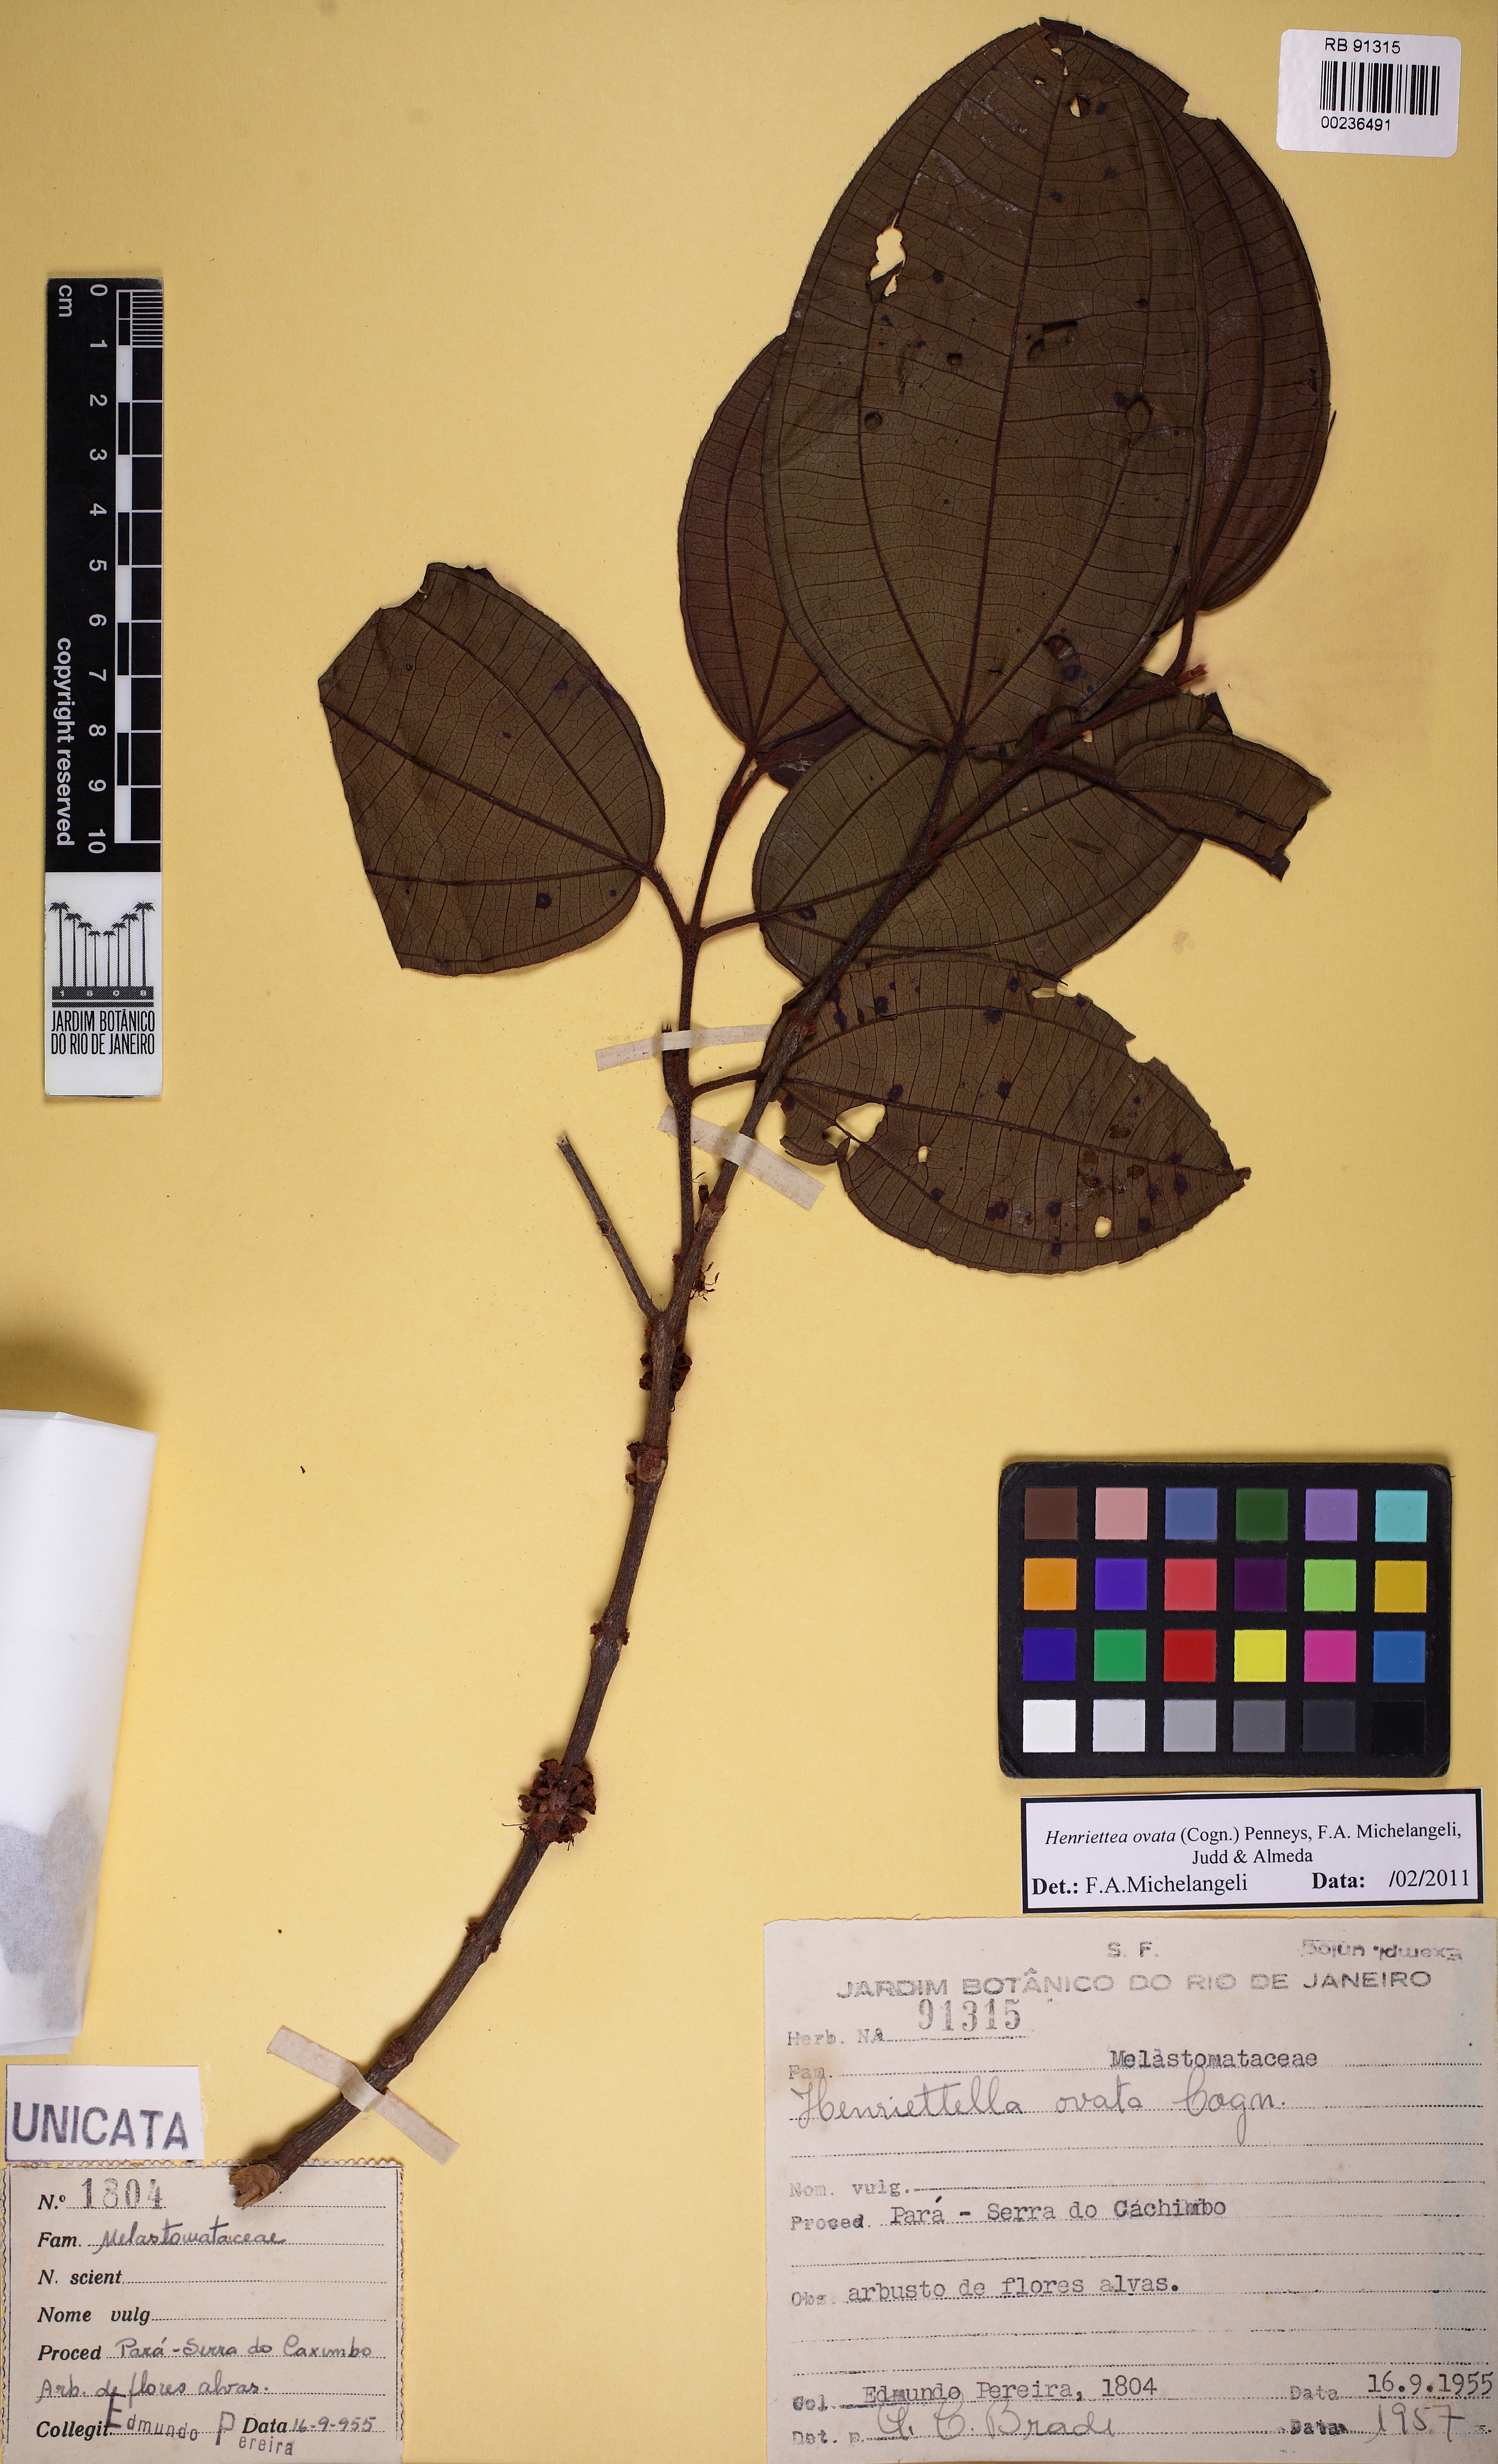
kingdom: Plantae
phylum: Tracheophyta
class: Magnoliopsida
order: Myrtales
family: Melastomataceae
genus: Henriettea
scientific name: Henriettea ovata
